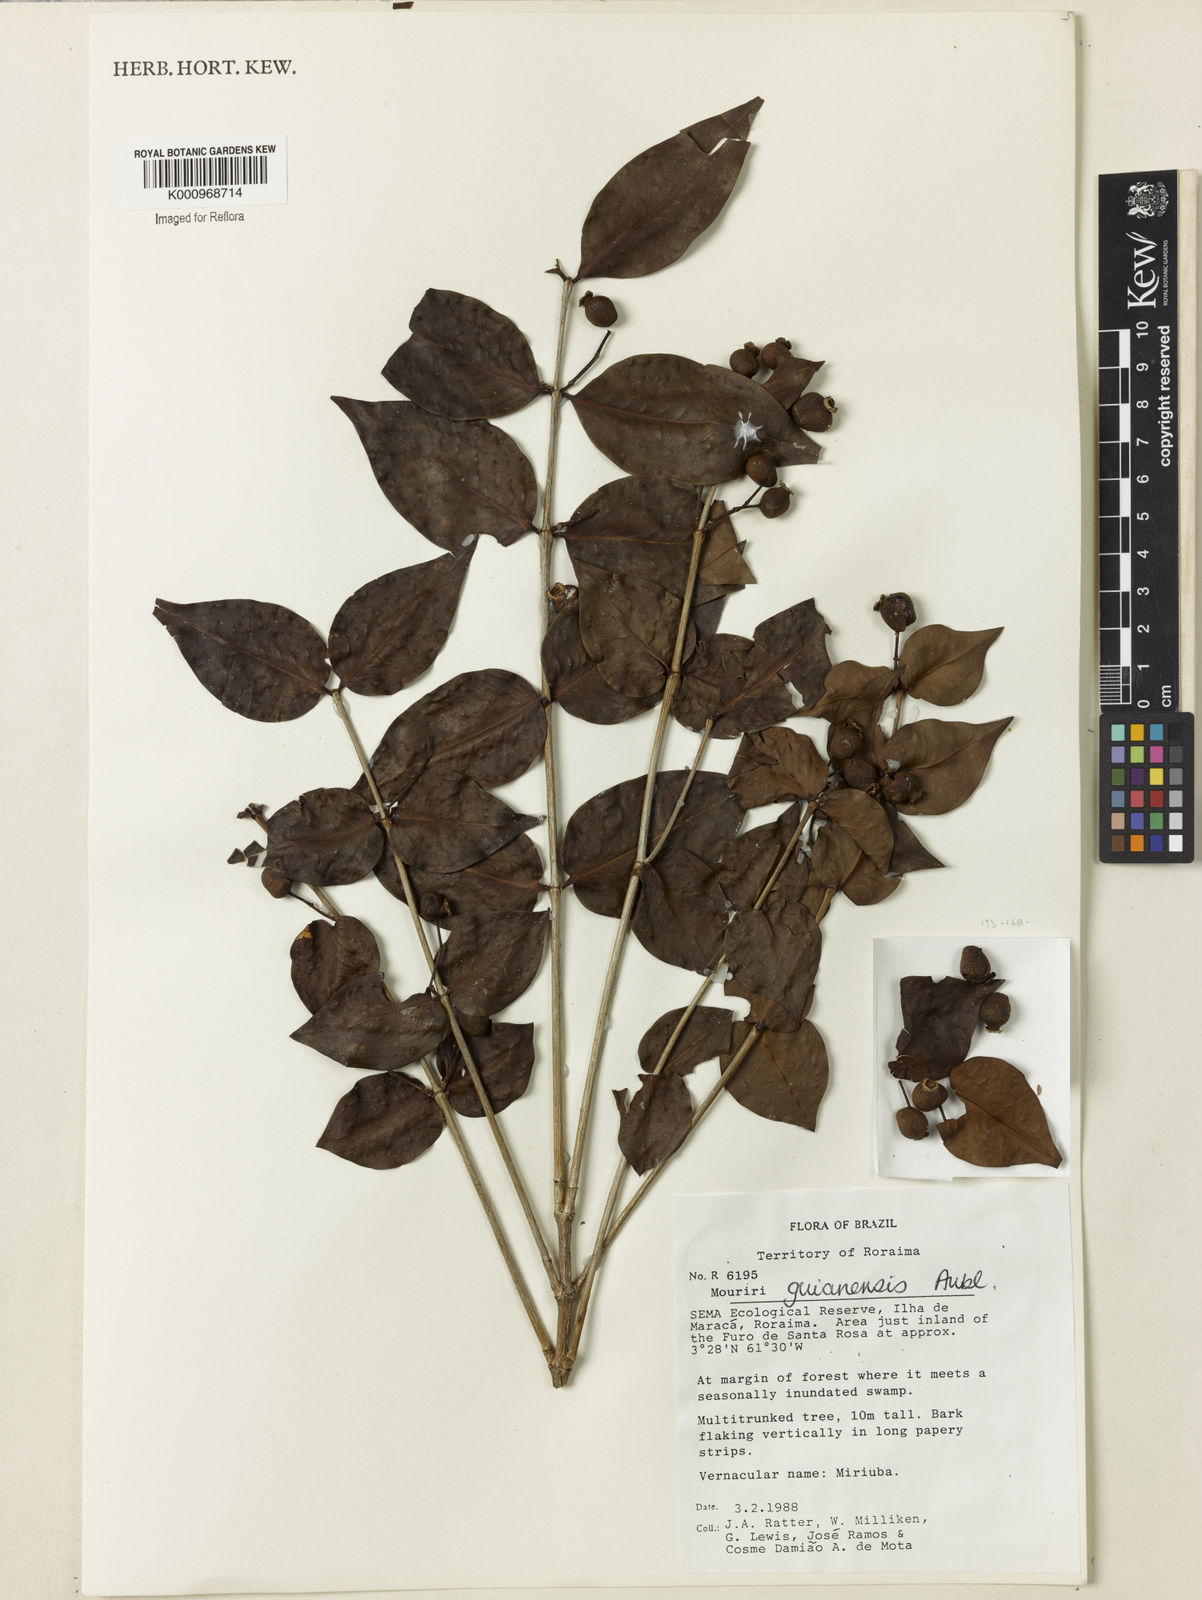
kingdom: Plantae
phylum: Tracheophyta
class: Magnoliopsida
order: Myrtales
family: Melastomataceae
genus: Mouriri
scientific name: Mouriri guianensis
